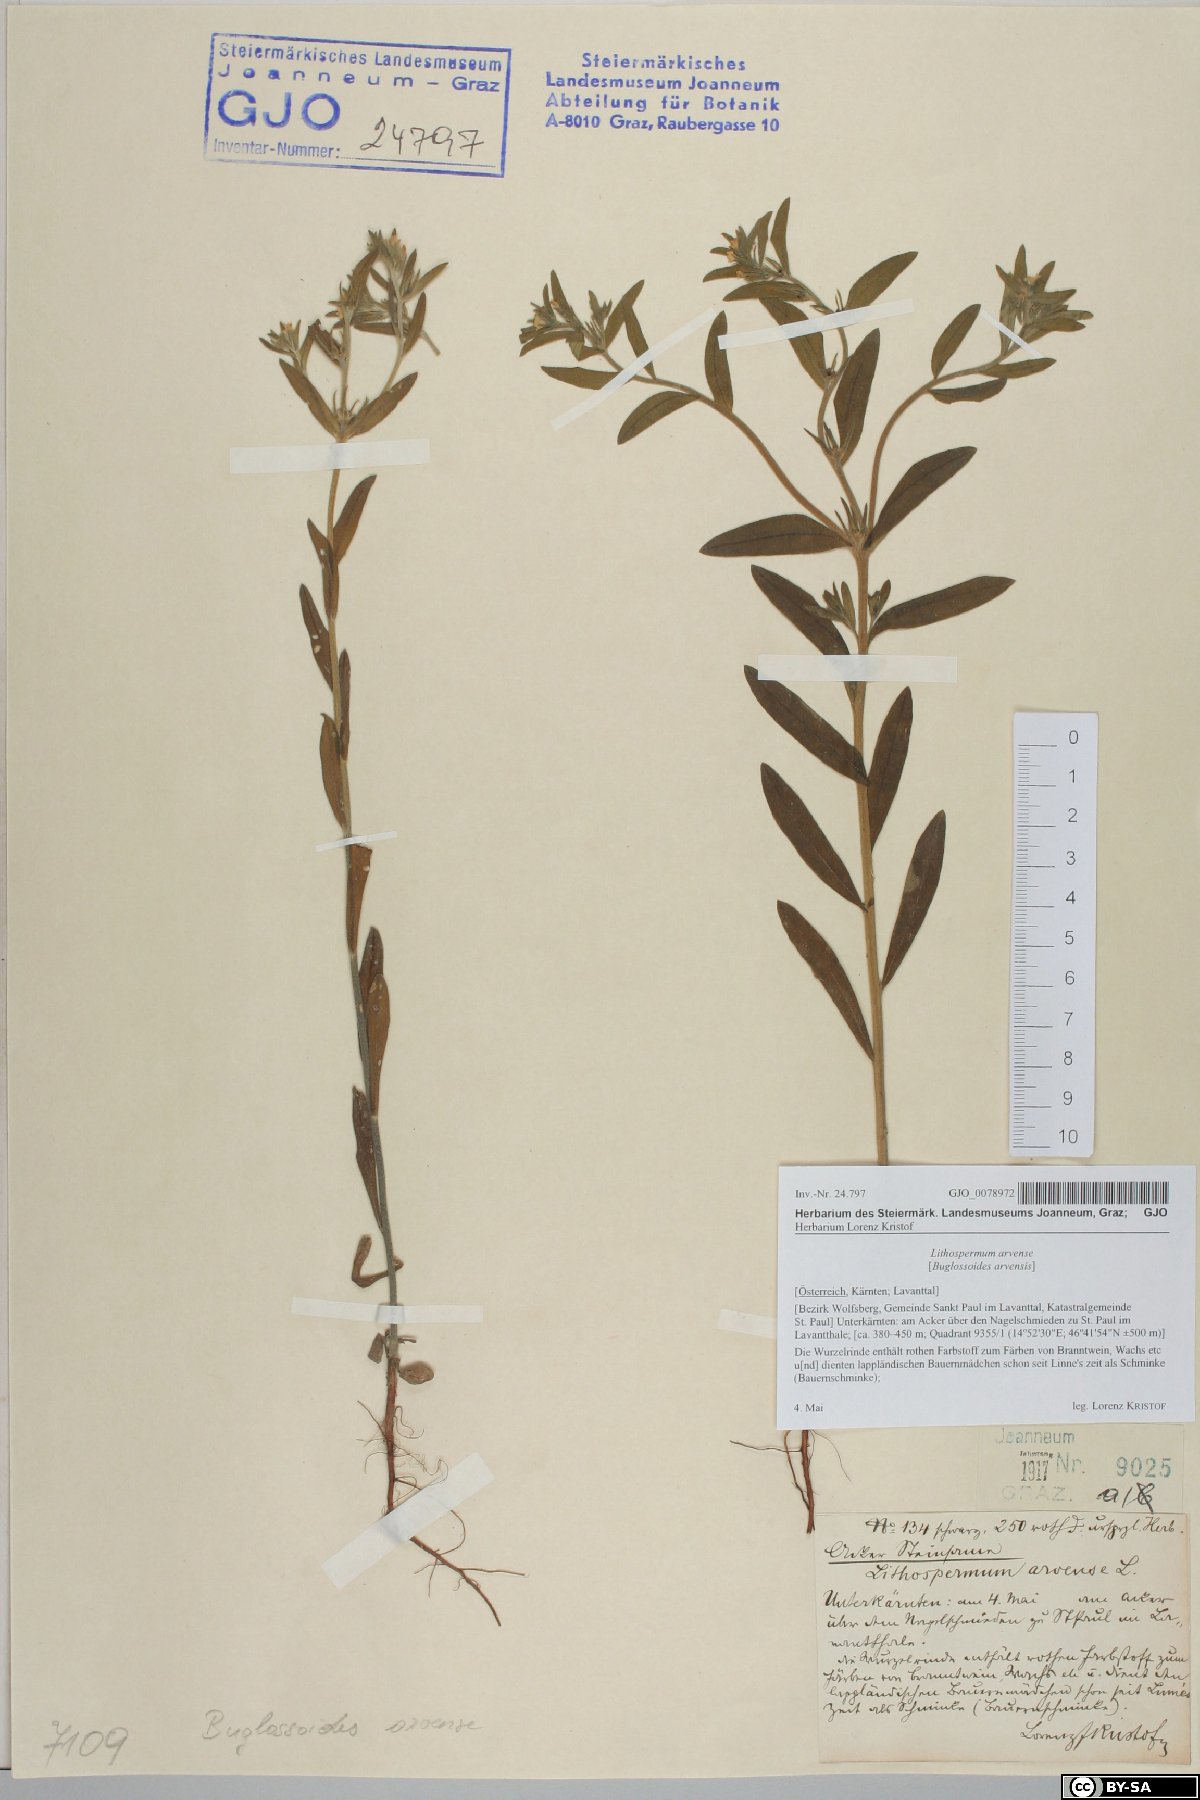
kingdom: Plantae
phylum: Tracheophyta
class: Magnoliopsida
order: Boraginales
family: Boraginaceae
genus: Buglossoides
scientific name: Buglossoides arvensis
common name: Corn gromwell
